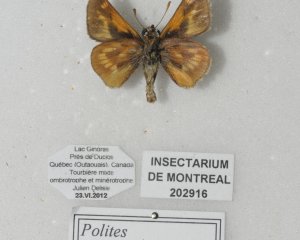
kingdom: Animalia
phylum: Arthropoda
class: Insecta
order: Lepidoptera
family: Hesperiidae
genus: Polites
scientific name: Polites
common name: Long Dash Skipper
